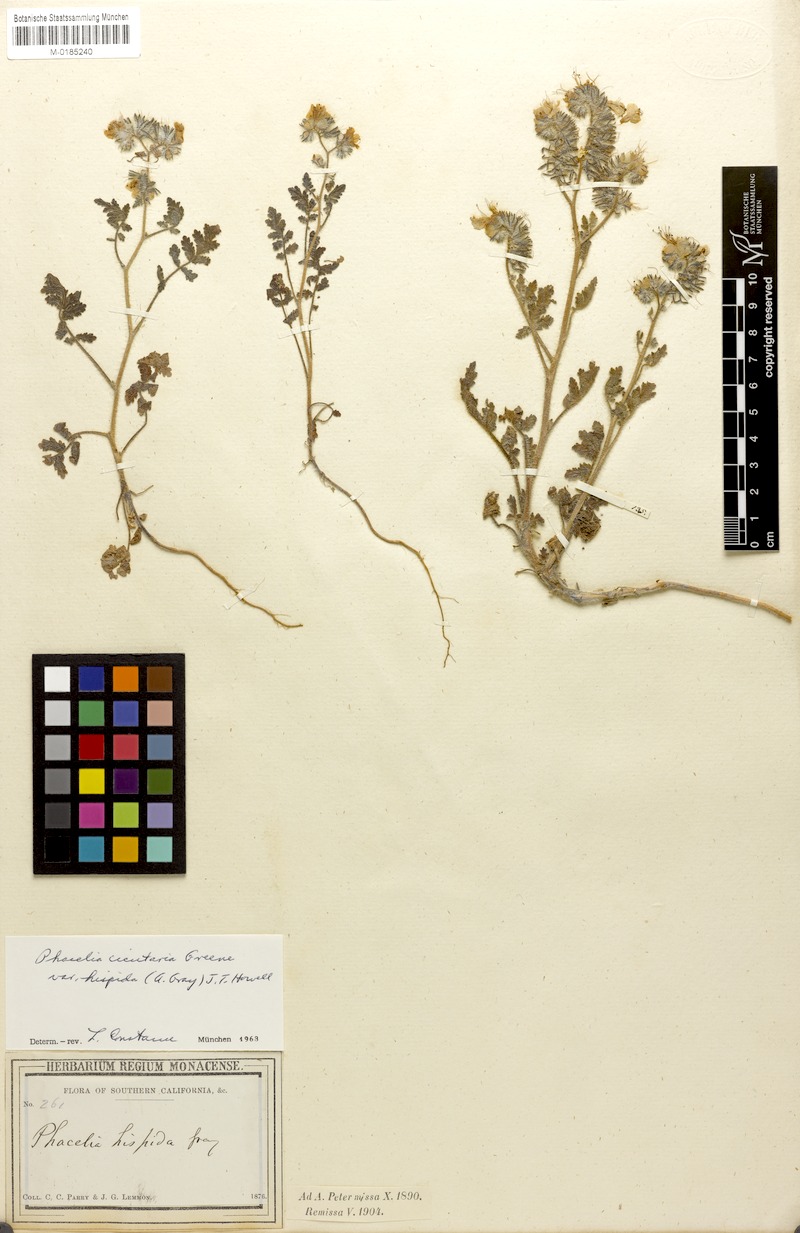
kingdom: Plantae
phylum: Tracheophyta
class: Magnoliopsida
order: Boraginales
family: Hydrophyllaceae
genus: Phacelia
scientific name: Phacelia cicutaria
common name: Caterpillar phacelia
